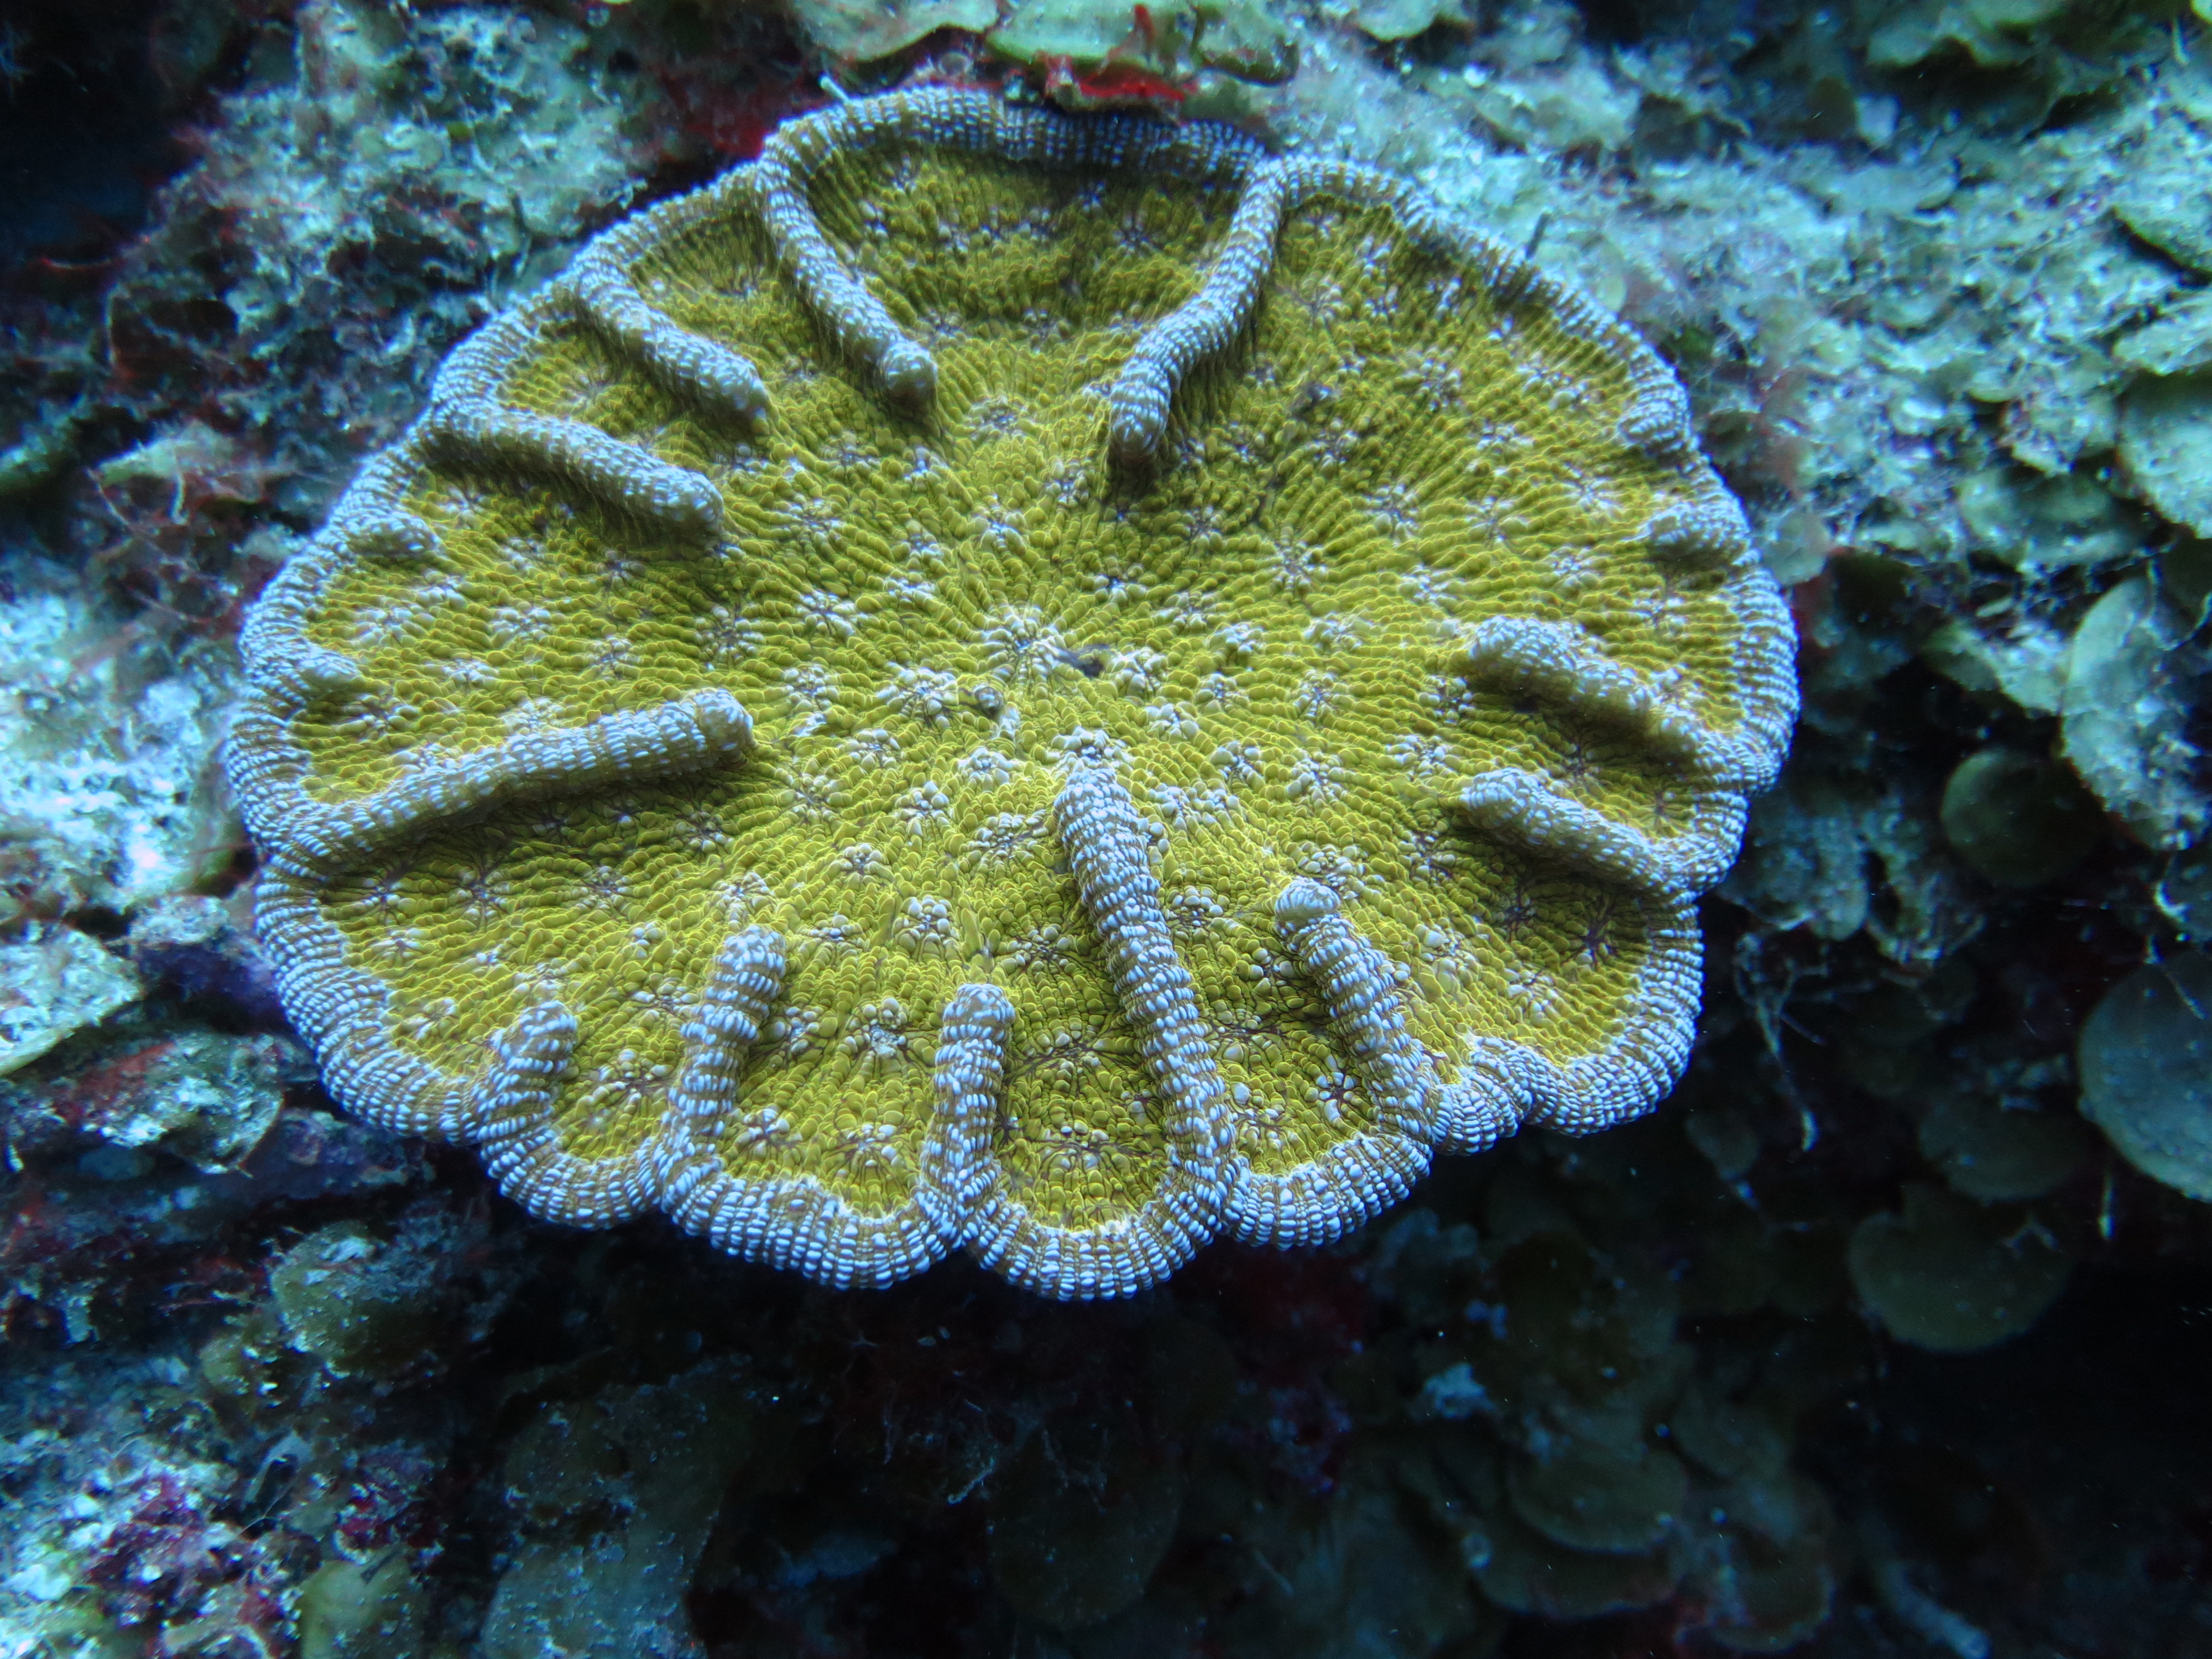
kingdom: Animalia
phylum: Cnidaria
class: Anthozoa
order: Scleractinia
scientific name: Scleractinia
